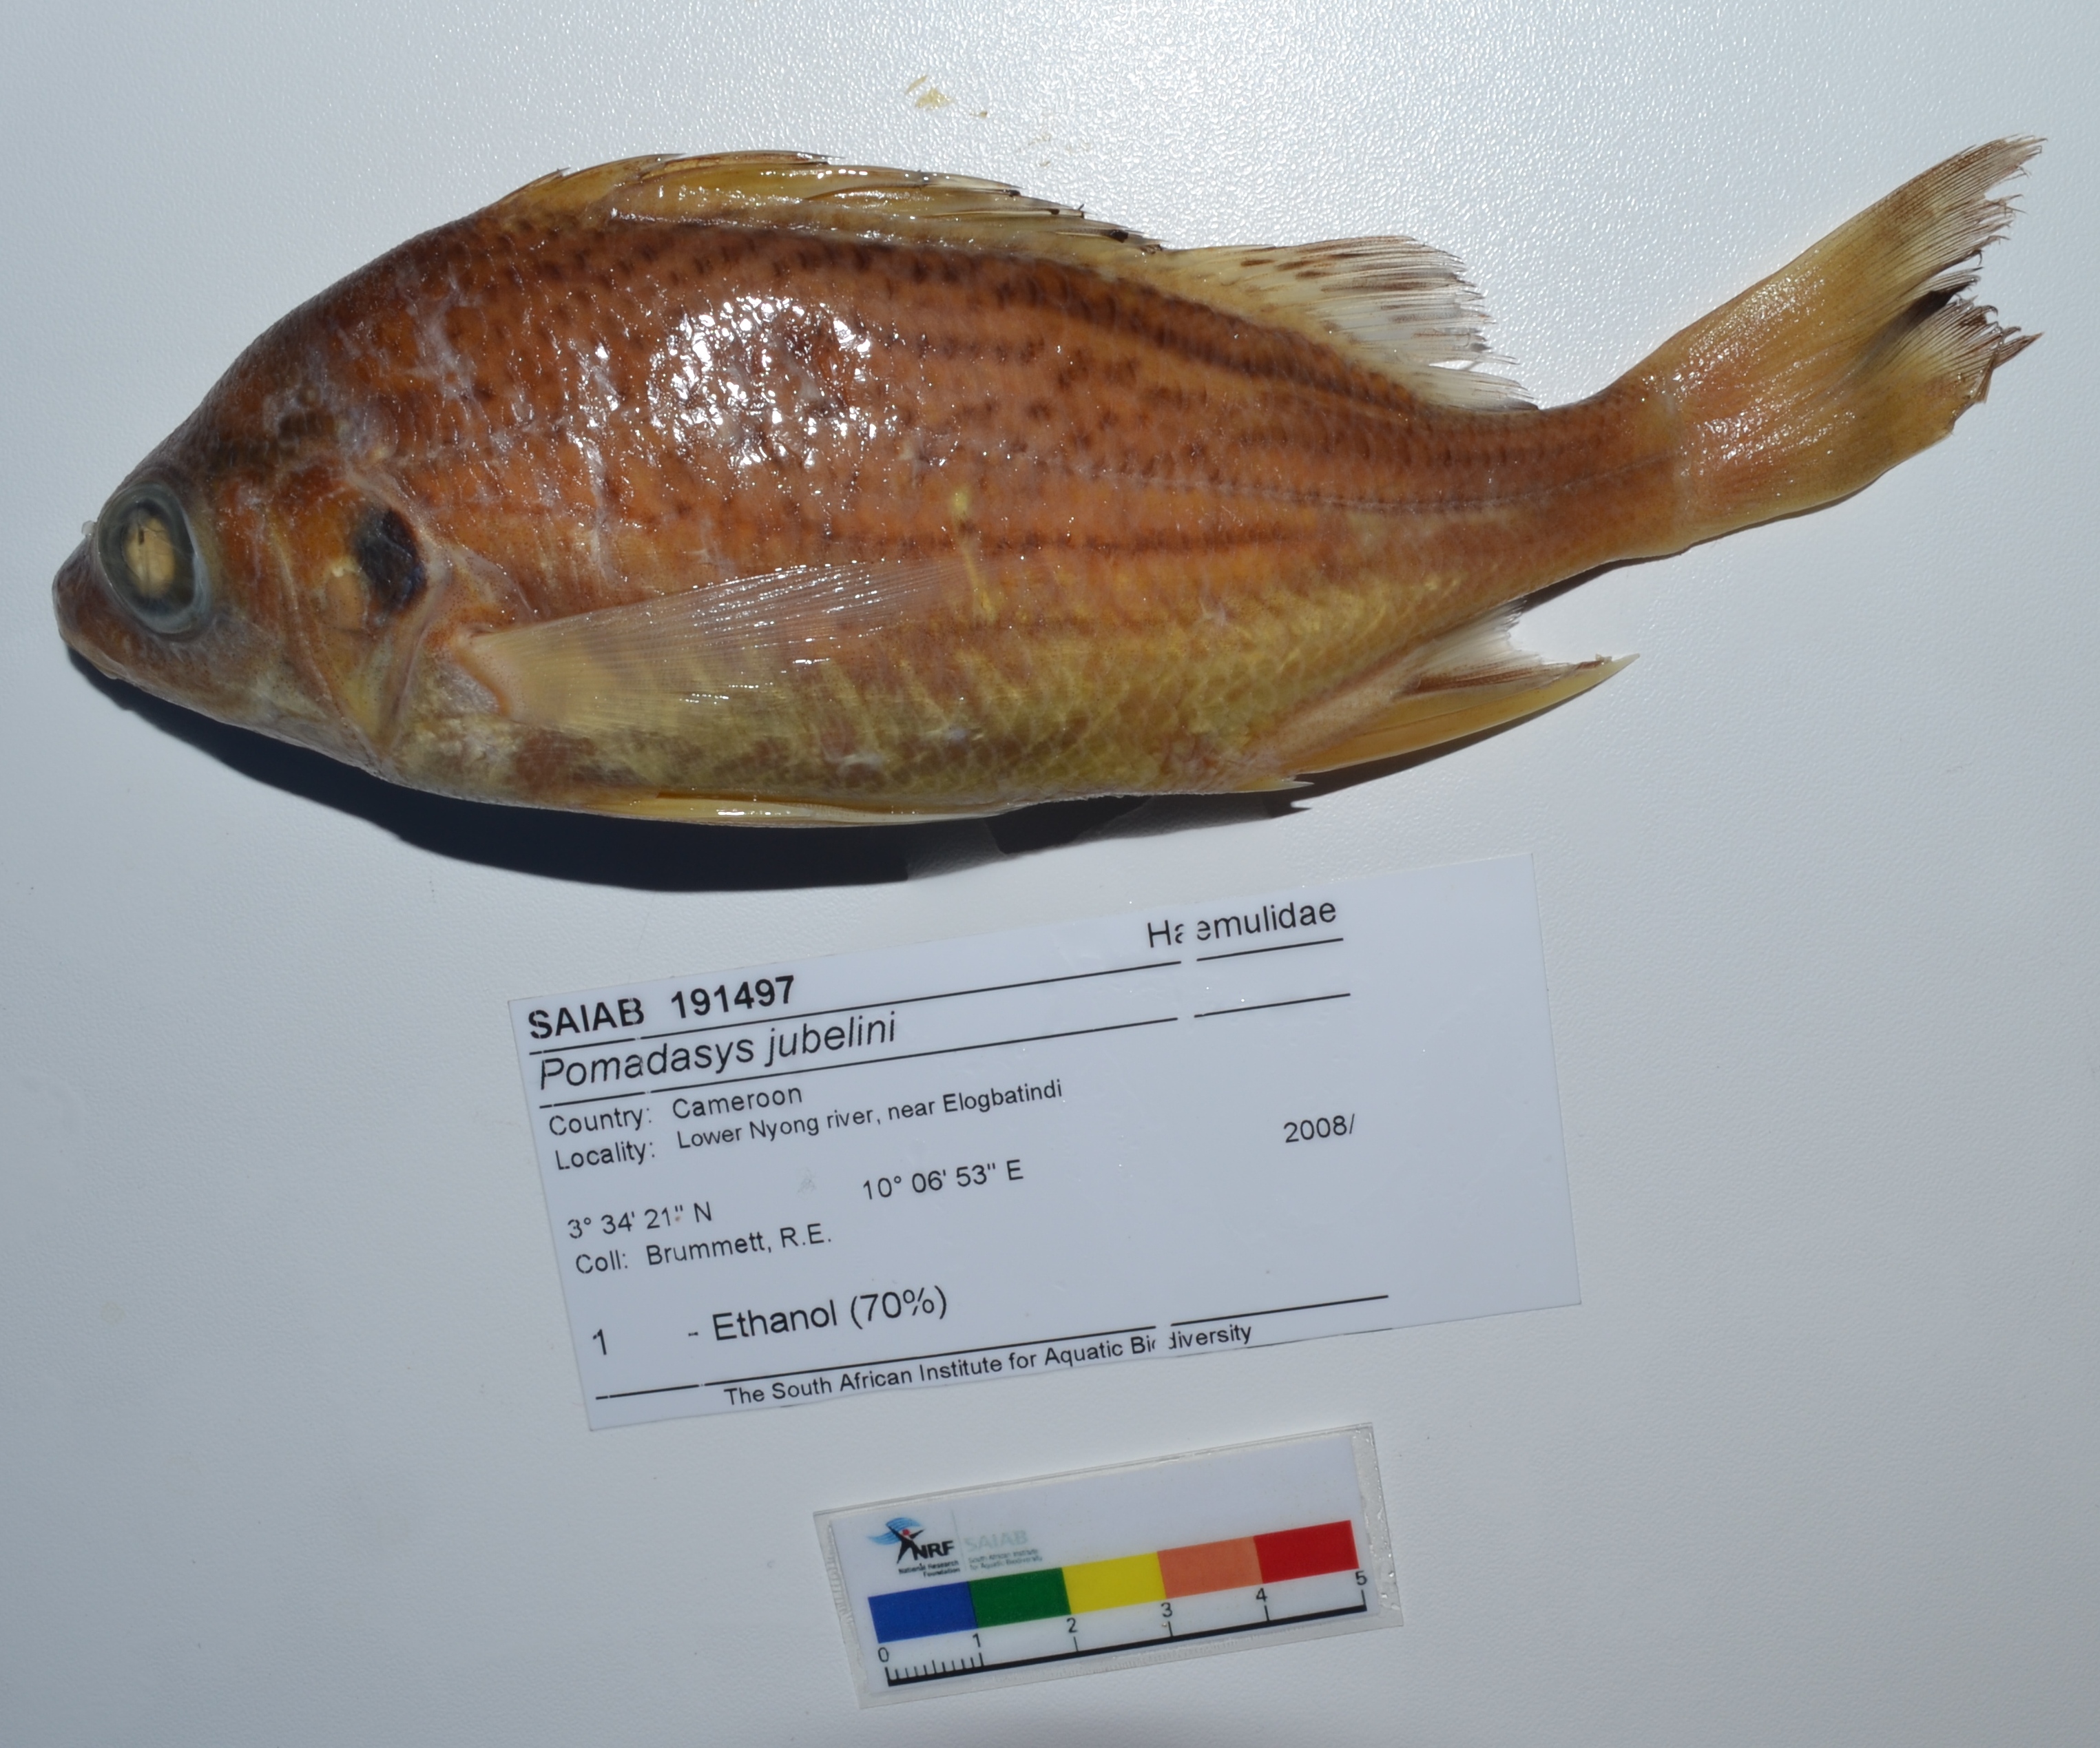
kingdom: Animalia
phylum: Chordata
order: Perciformes
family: Haemulidae
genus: Pomadasys
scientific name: Pomadasys jubelini
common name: Sompat grunt
